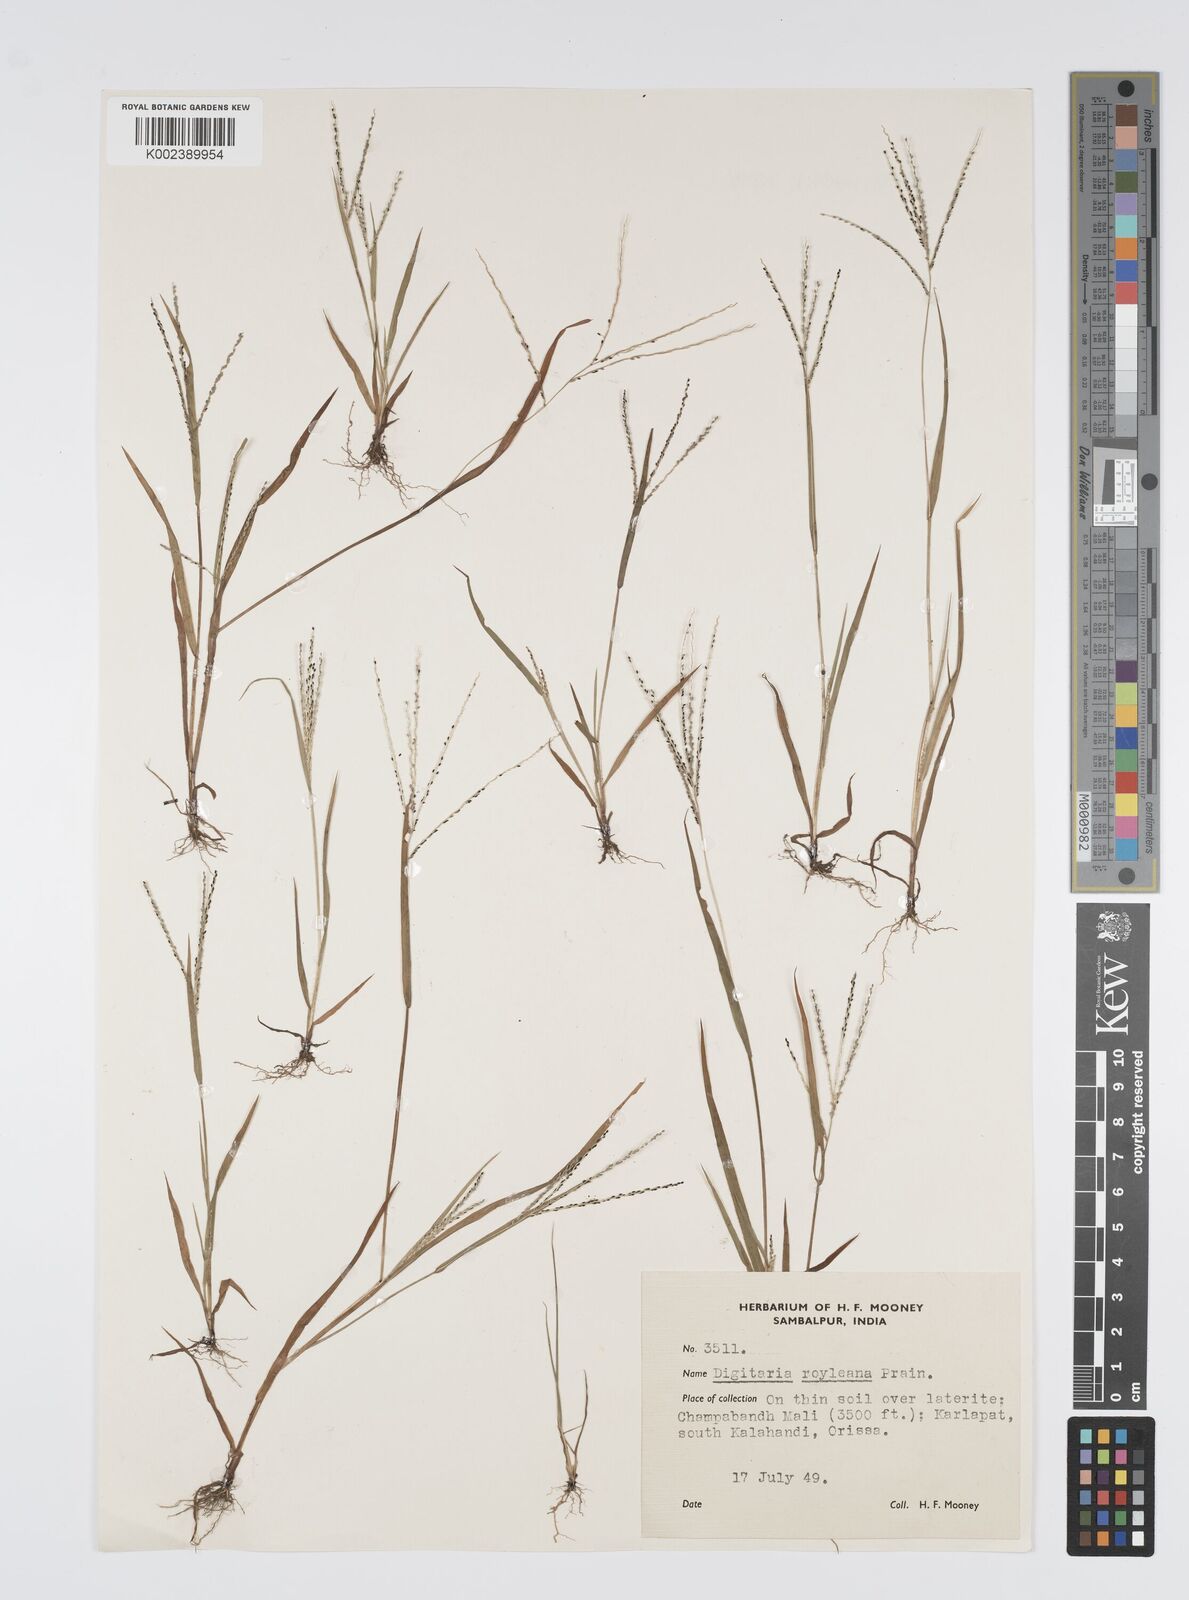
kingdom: Plantae
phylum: Tracheophyta
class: Liliopsida
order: Poales
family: Poaceae
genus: Digitaria
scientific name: Digitaria stricta
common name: Crabgrass
